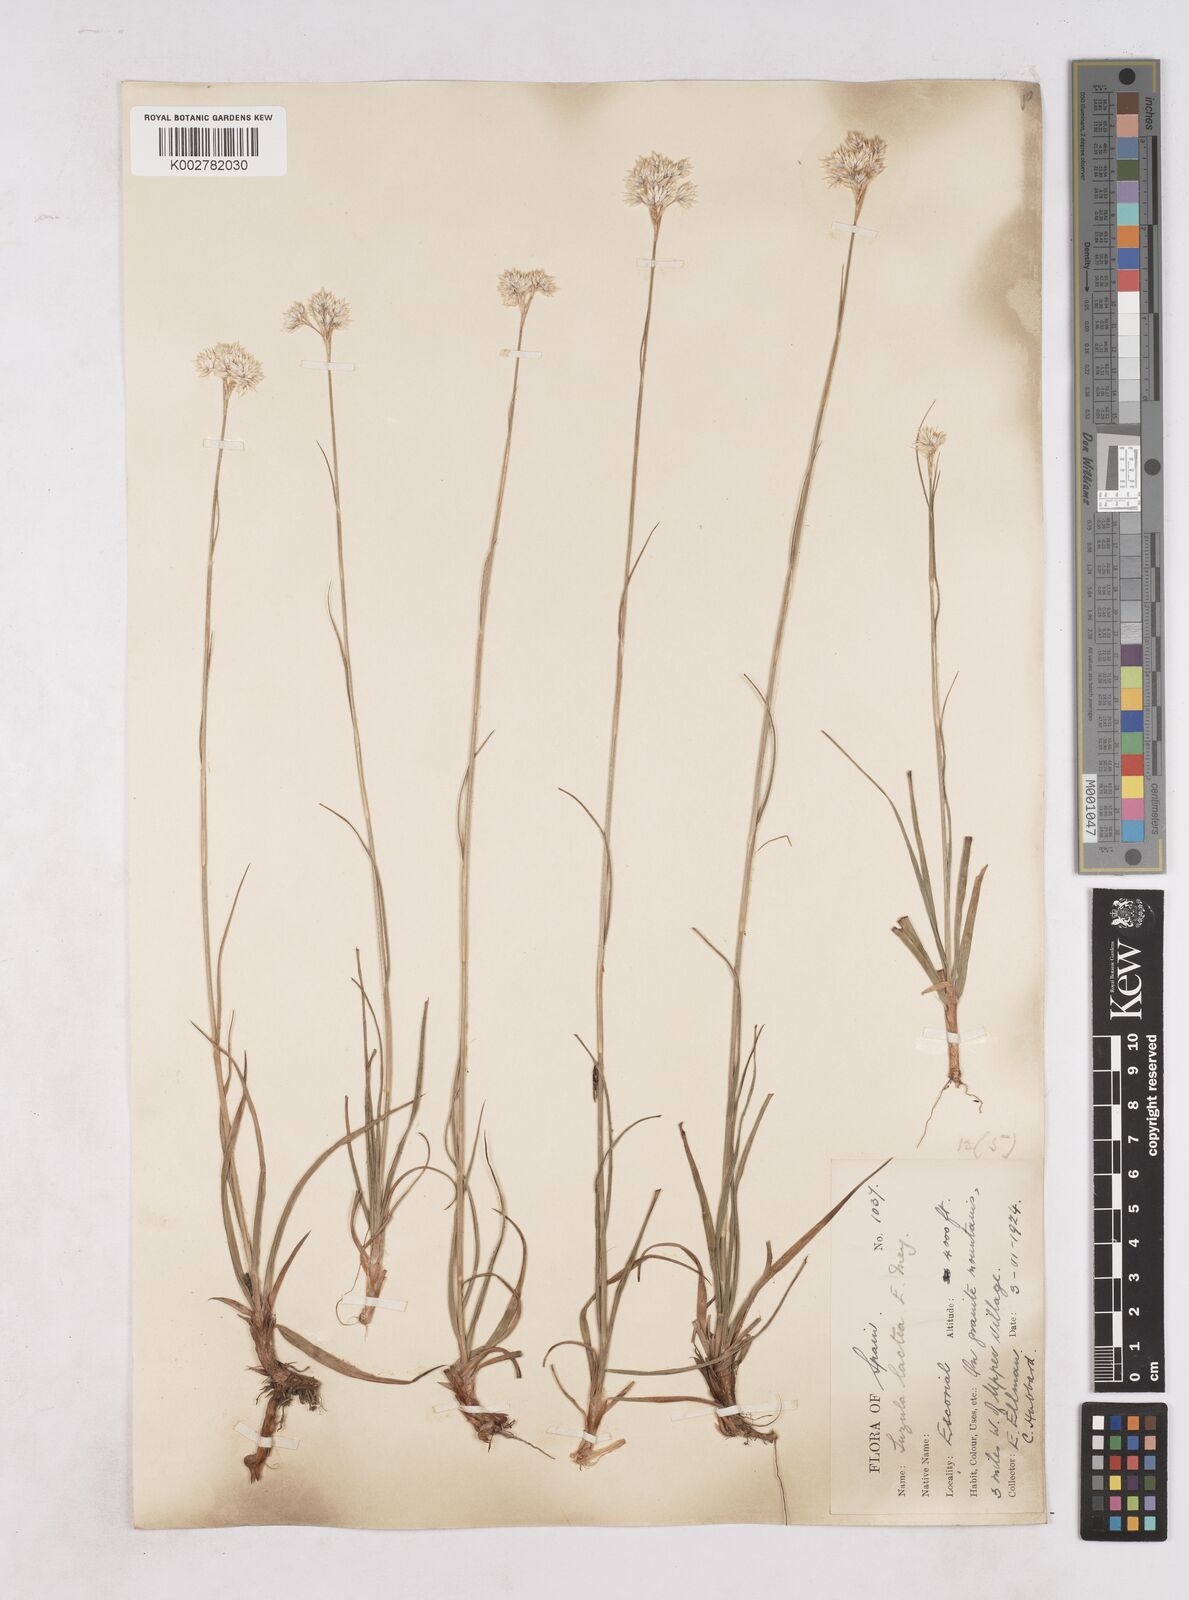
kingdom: Plantae
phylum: Tracheophyta
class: Liliopsida
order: Poales
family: Juncaceae
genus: Luzula
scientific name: Luzula lactea
